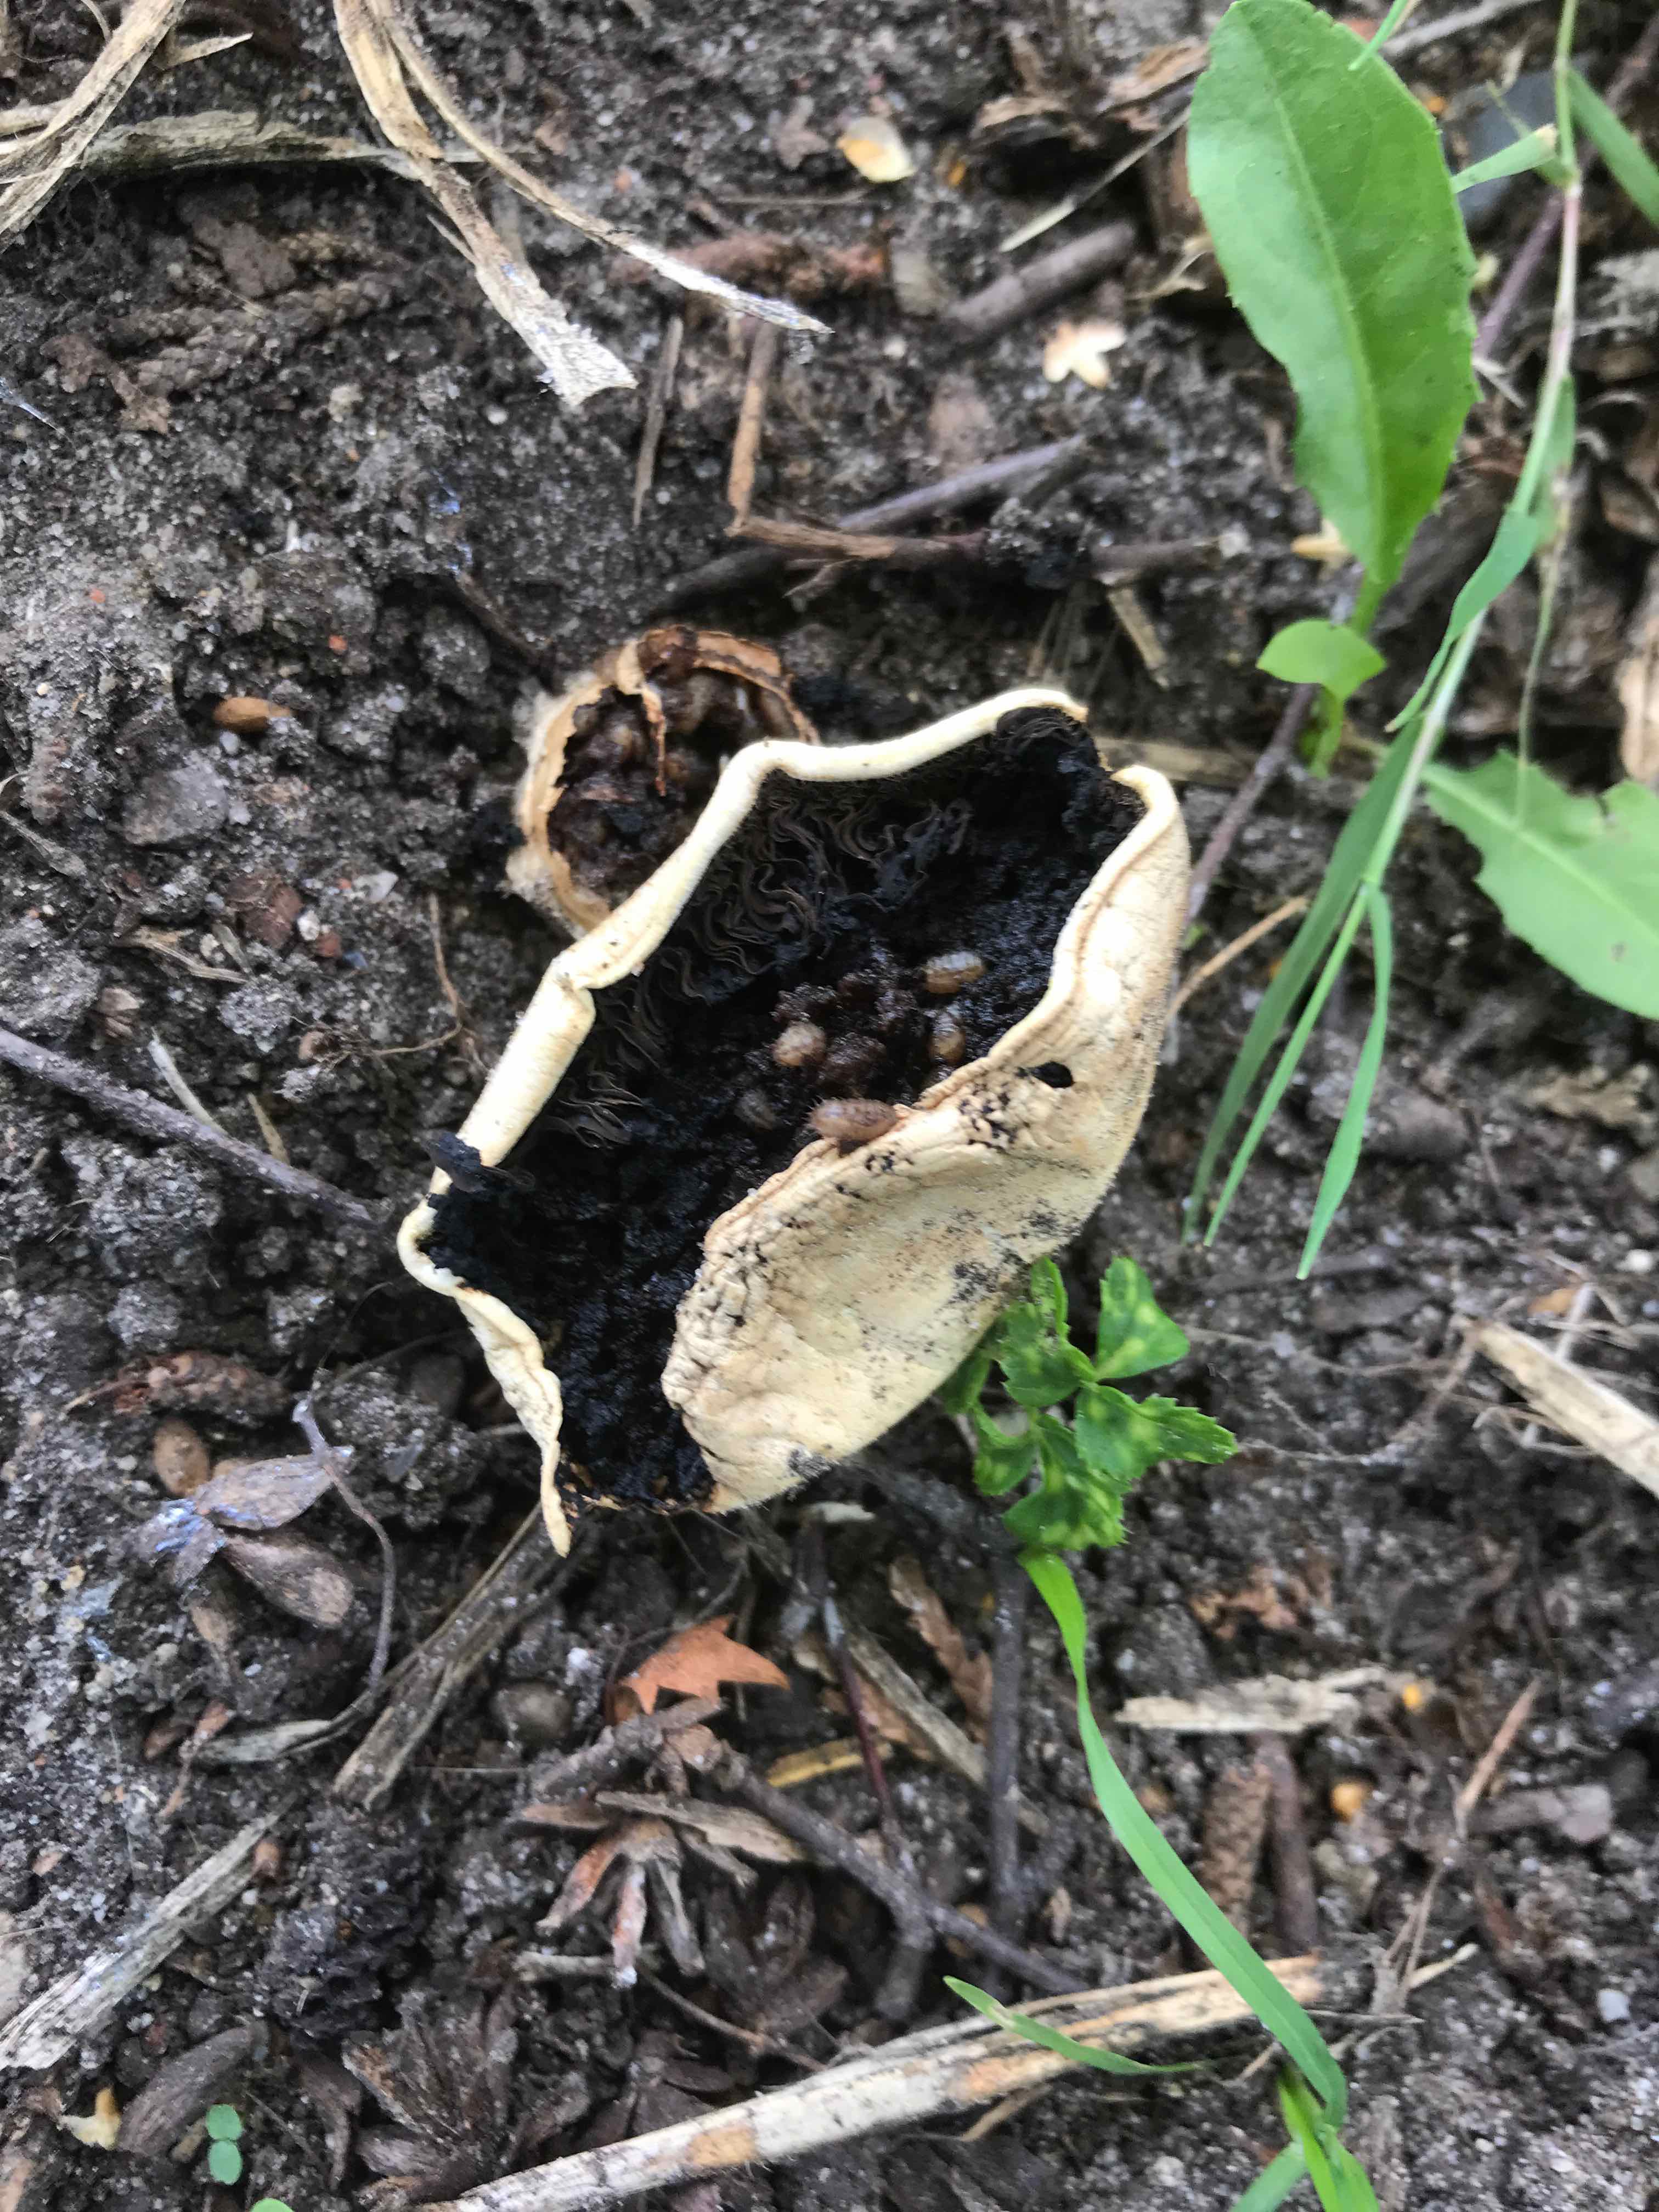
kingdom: Fungi
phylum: Basidiomycota
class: Agaricomycetes
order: Agaricales
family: Agaricaceae
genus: Agaricus
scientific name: Agaricus bitorquis
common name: vej-champignon
